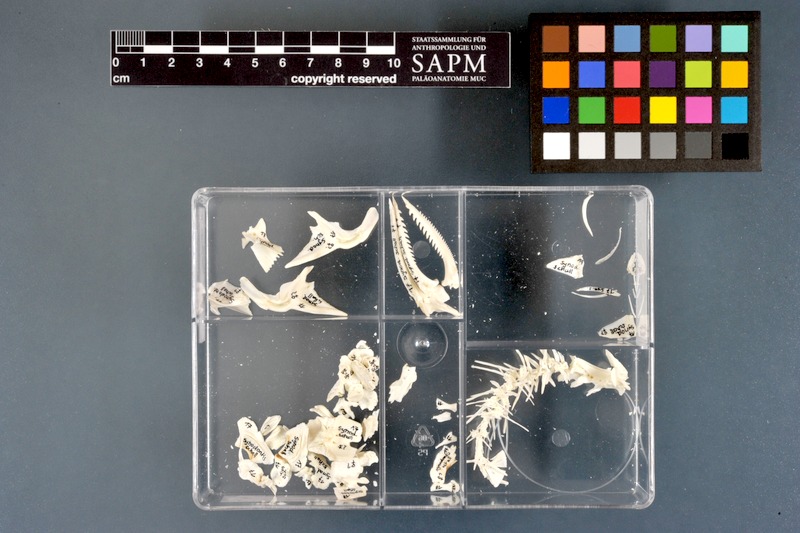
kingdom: Animalia
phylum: Chordata
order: Siluriformes
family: Mochokidae
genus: Synodontis
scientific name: Synodontis schall
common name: Wahrindi
